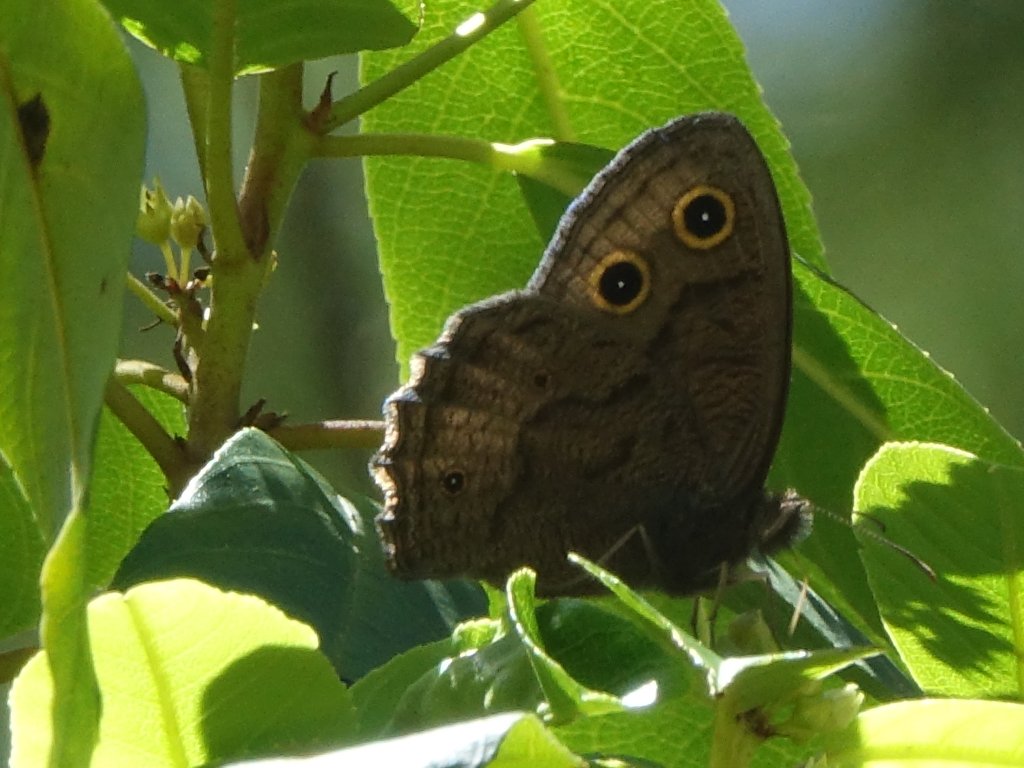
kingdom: Animalia
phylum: Arthropoda
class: Insecta
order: Lepidoptera
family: Nymphalidae
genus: Cercyonis
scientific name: Cercyonis pegala
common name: Common Wood-Nymph
